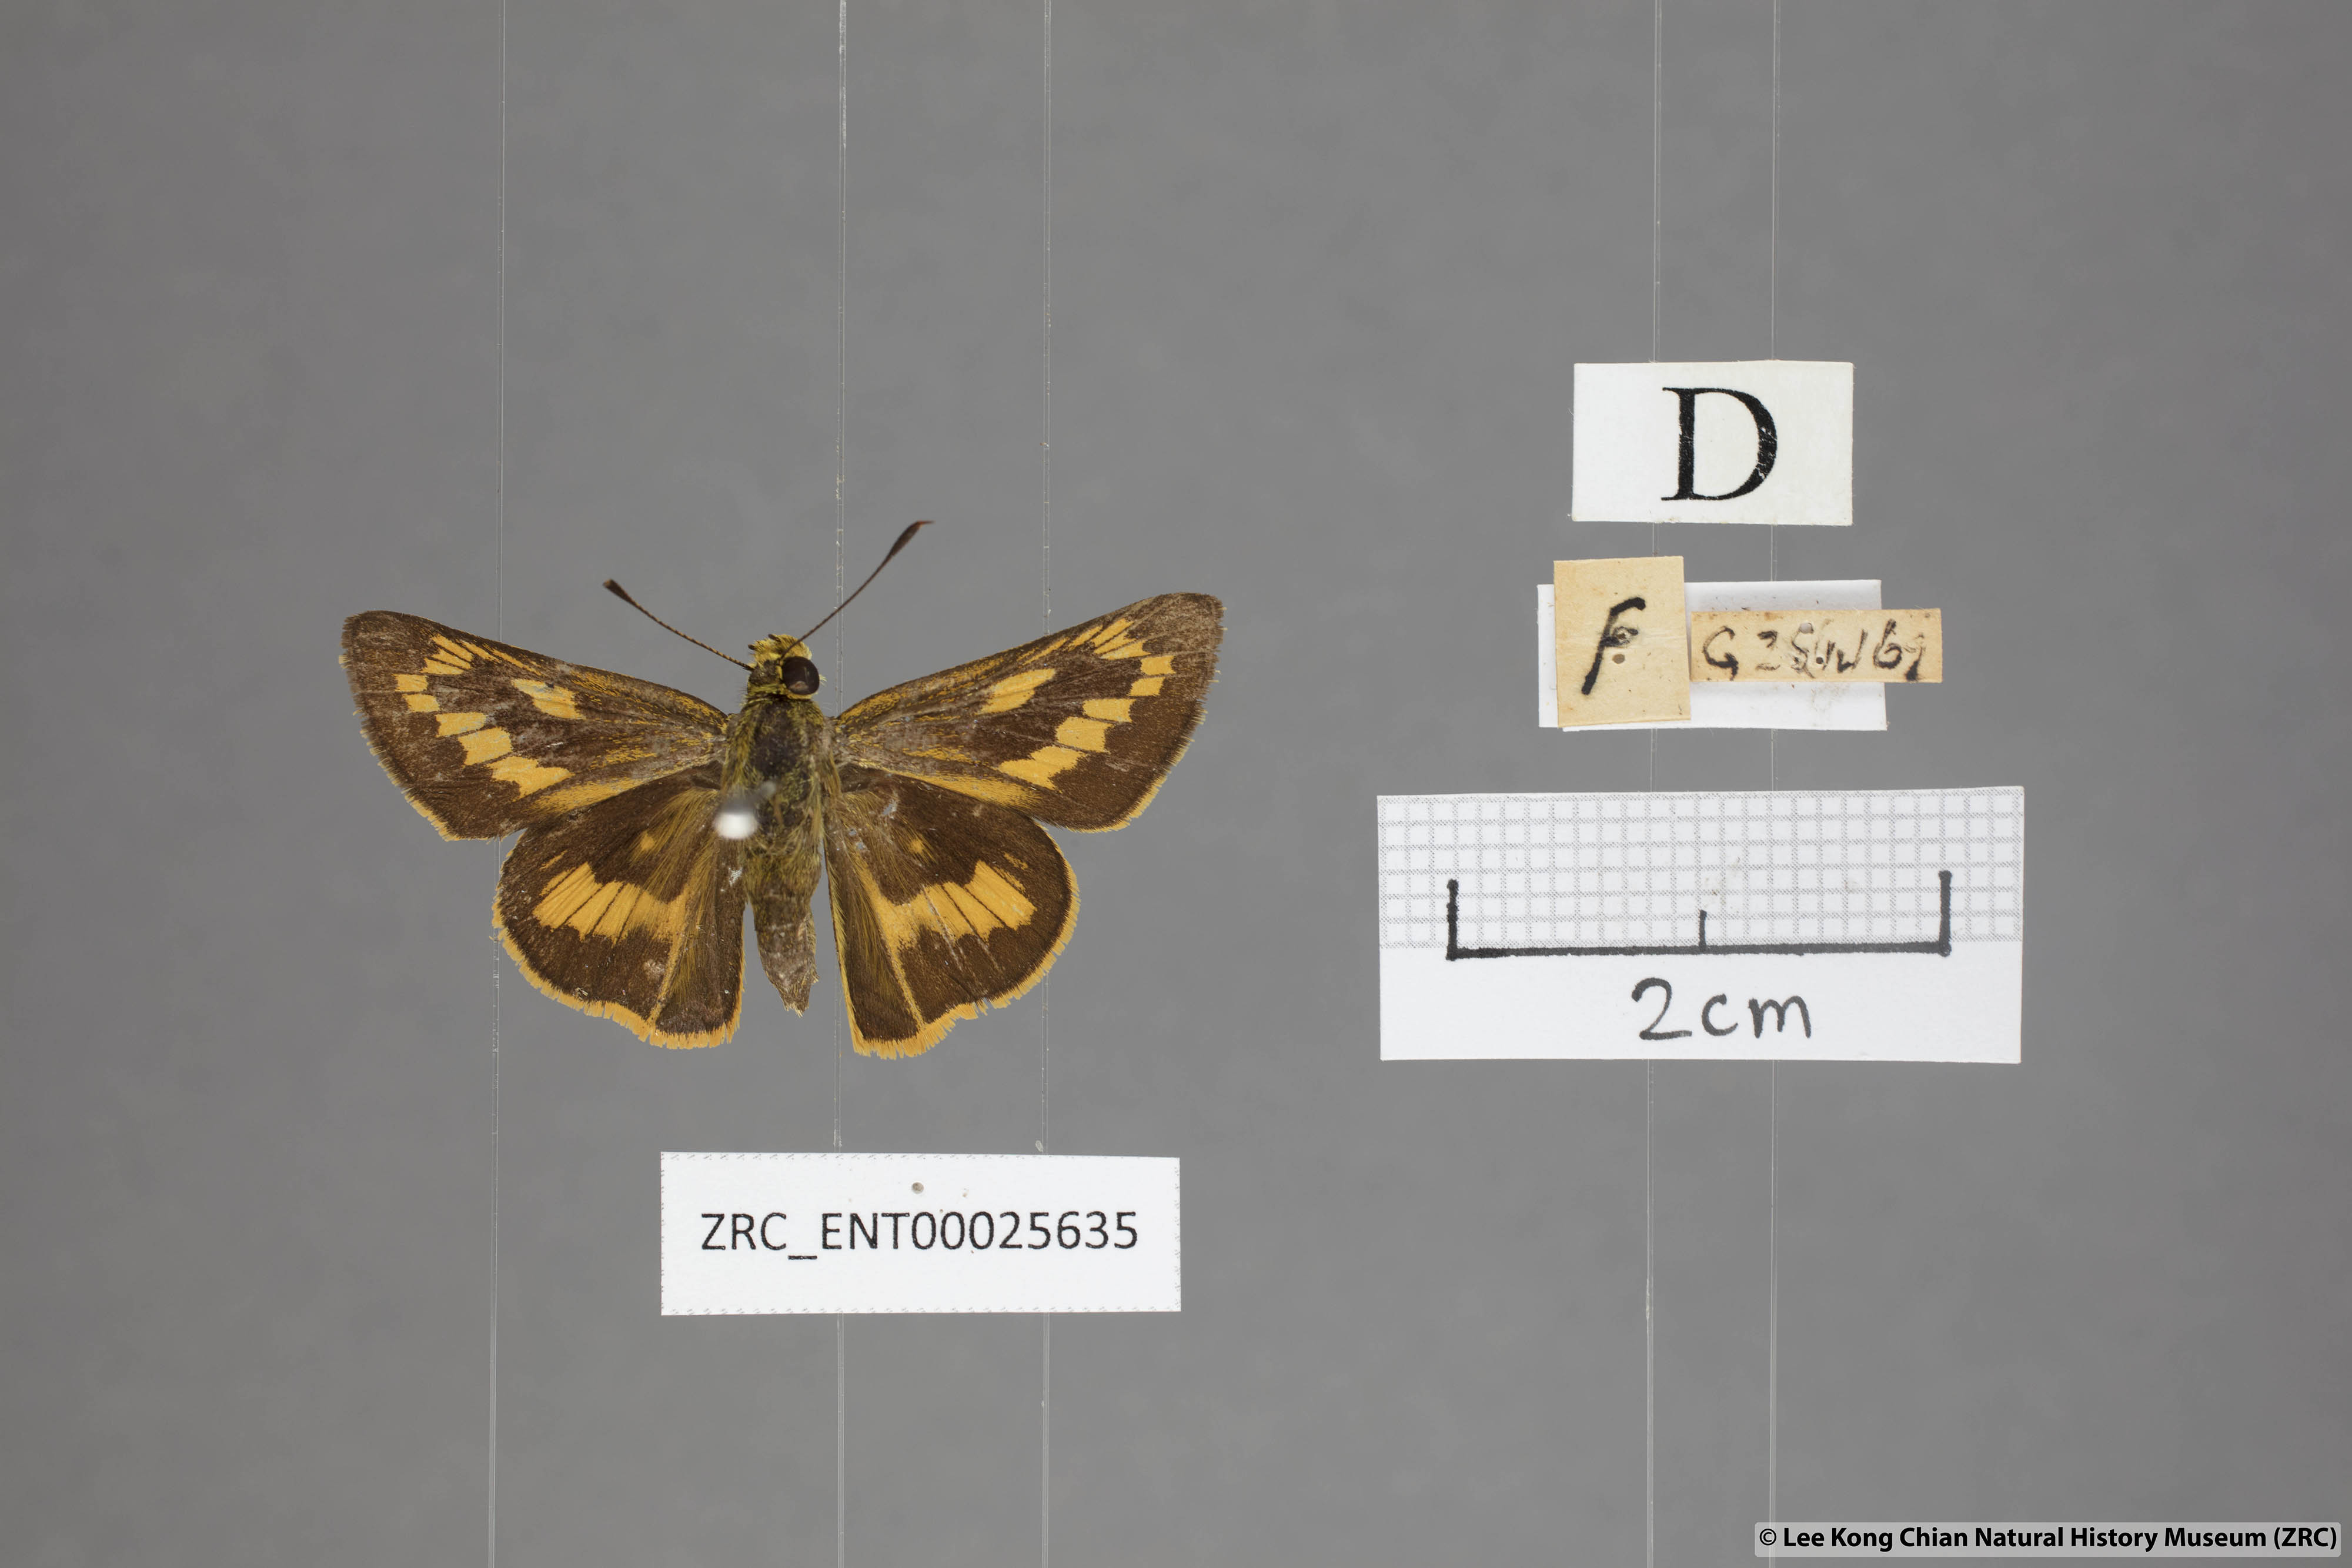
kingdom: Animalia
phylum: Arthropoda
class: Insecta
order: Lepidoptera
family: Hesperiidae
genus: Telicota
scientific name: Telicota augias
